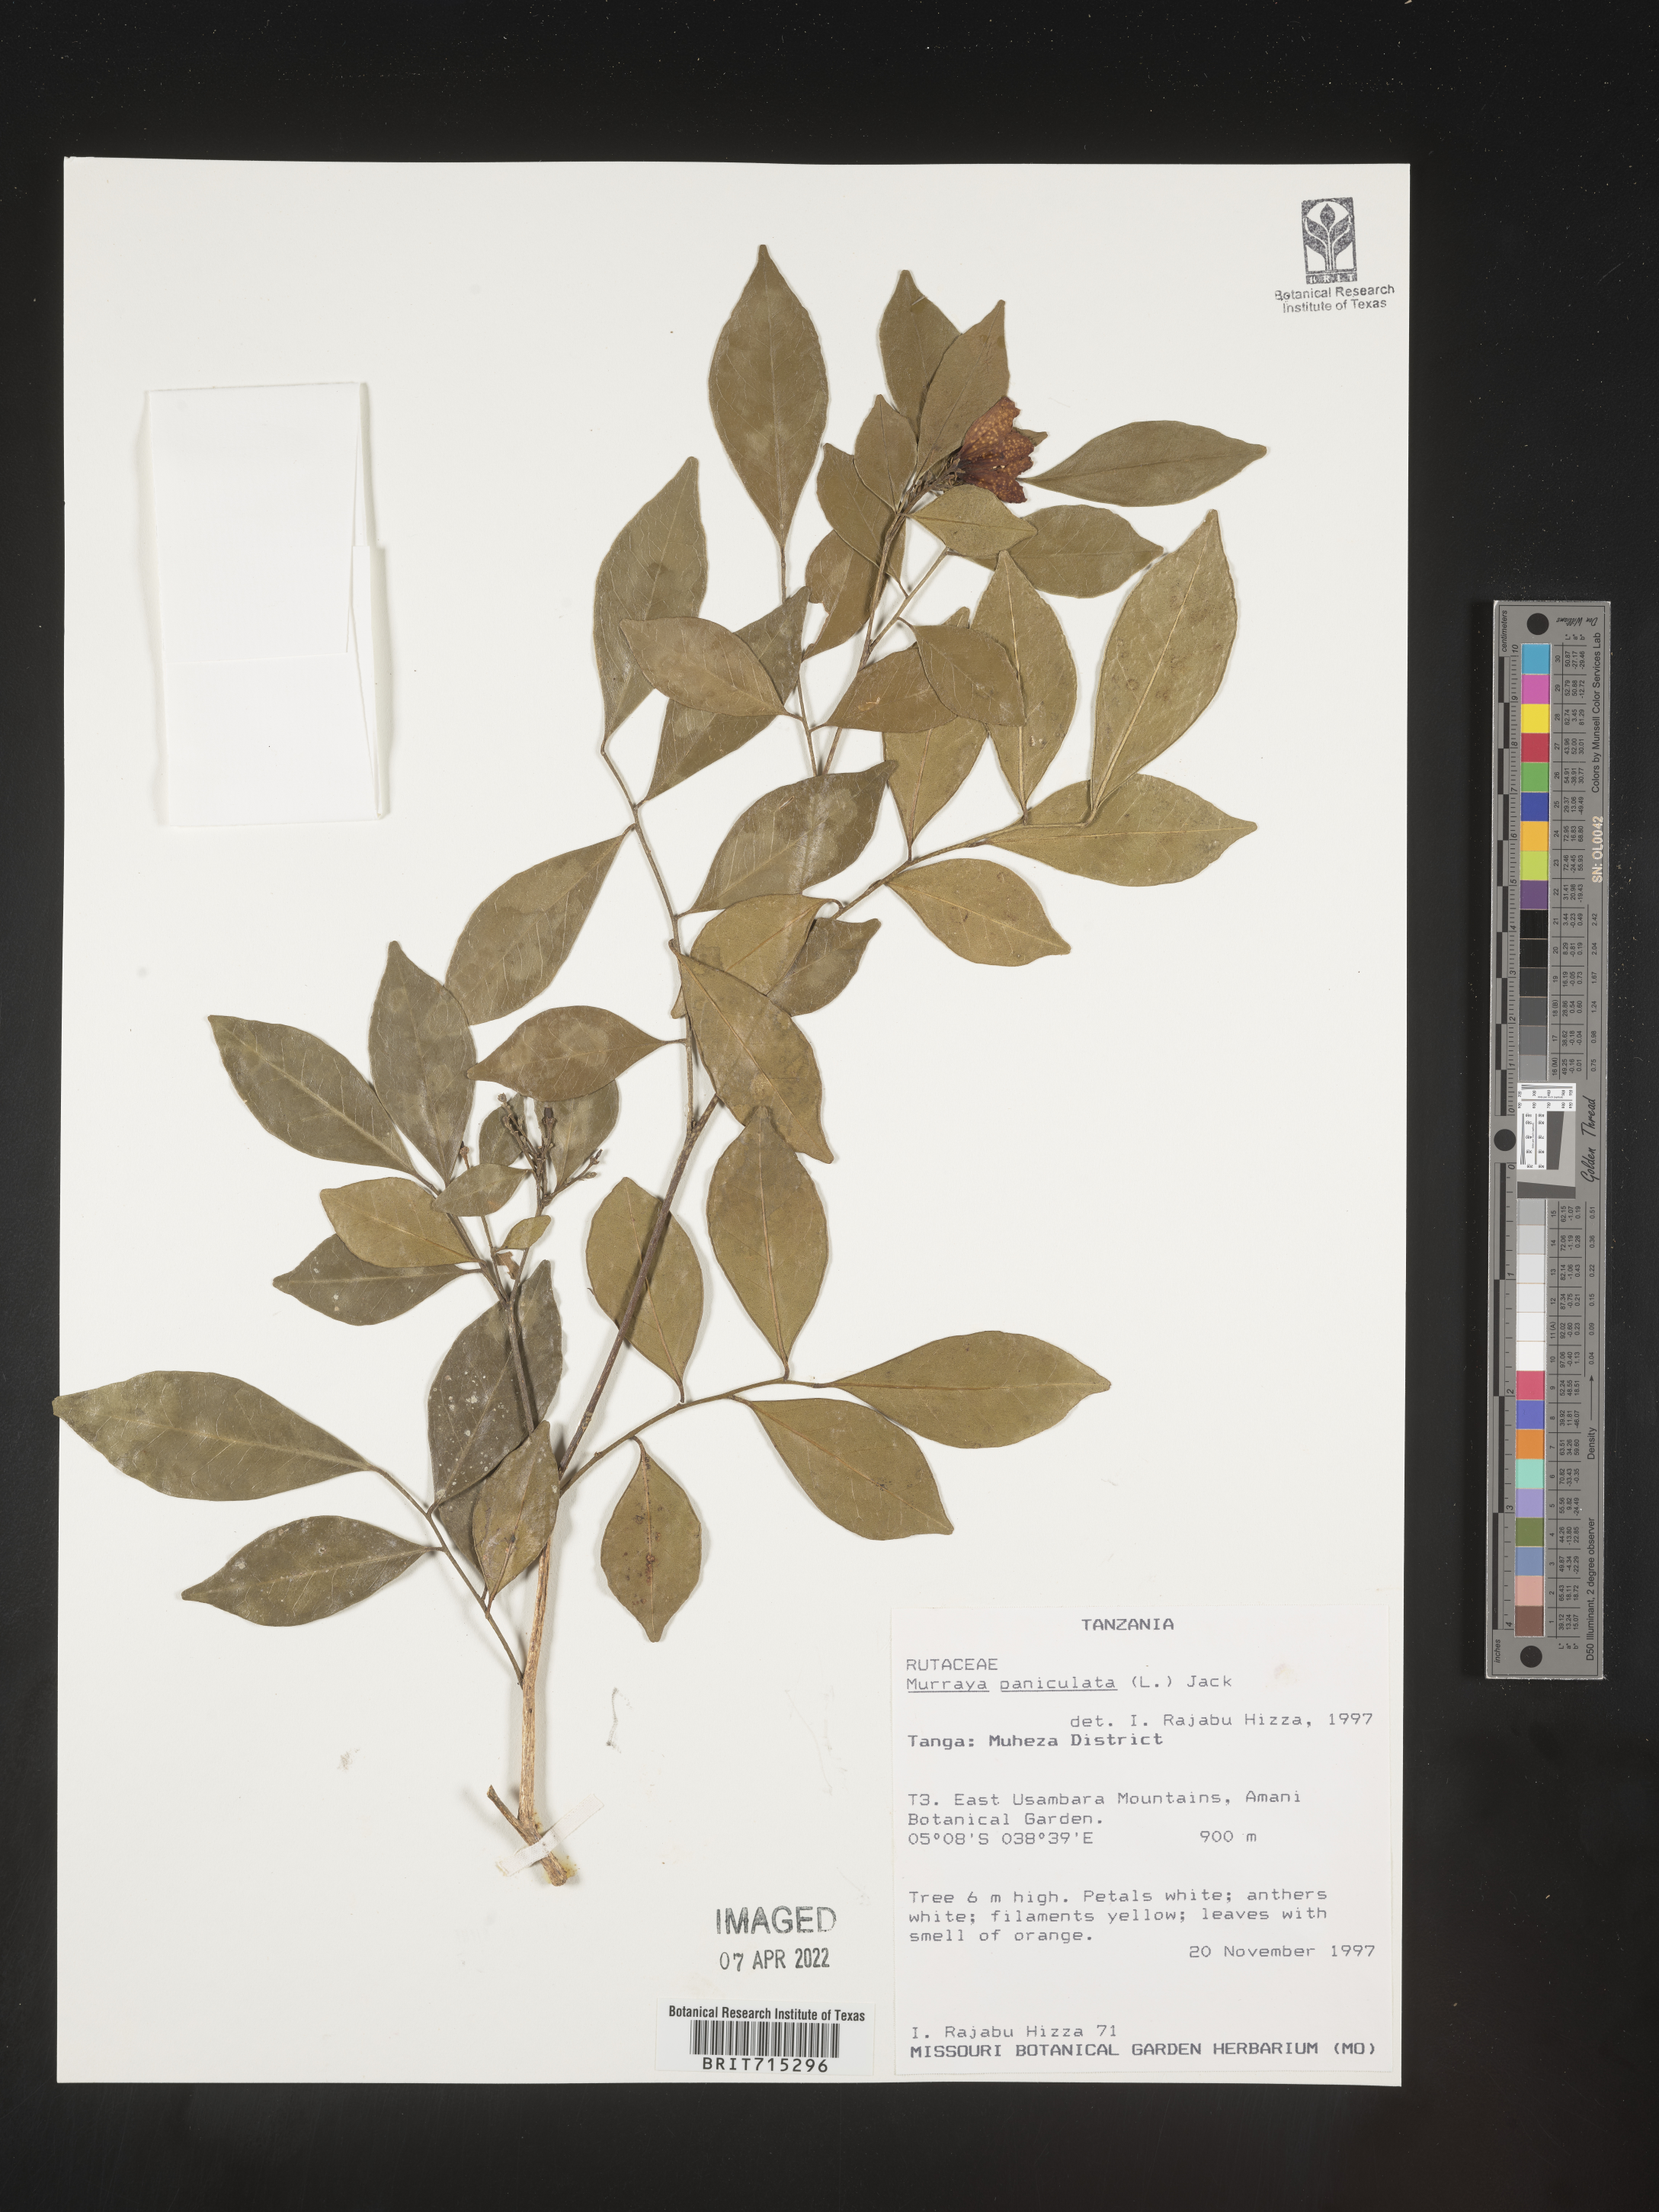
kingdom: Plantae
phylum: Tracheophyta
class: Magnoliopsida
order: Sapindales
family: Rutaceae
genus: Murraya
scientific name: Murraya
